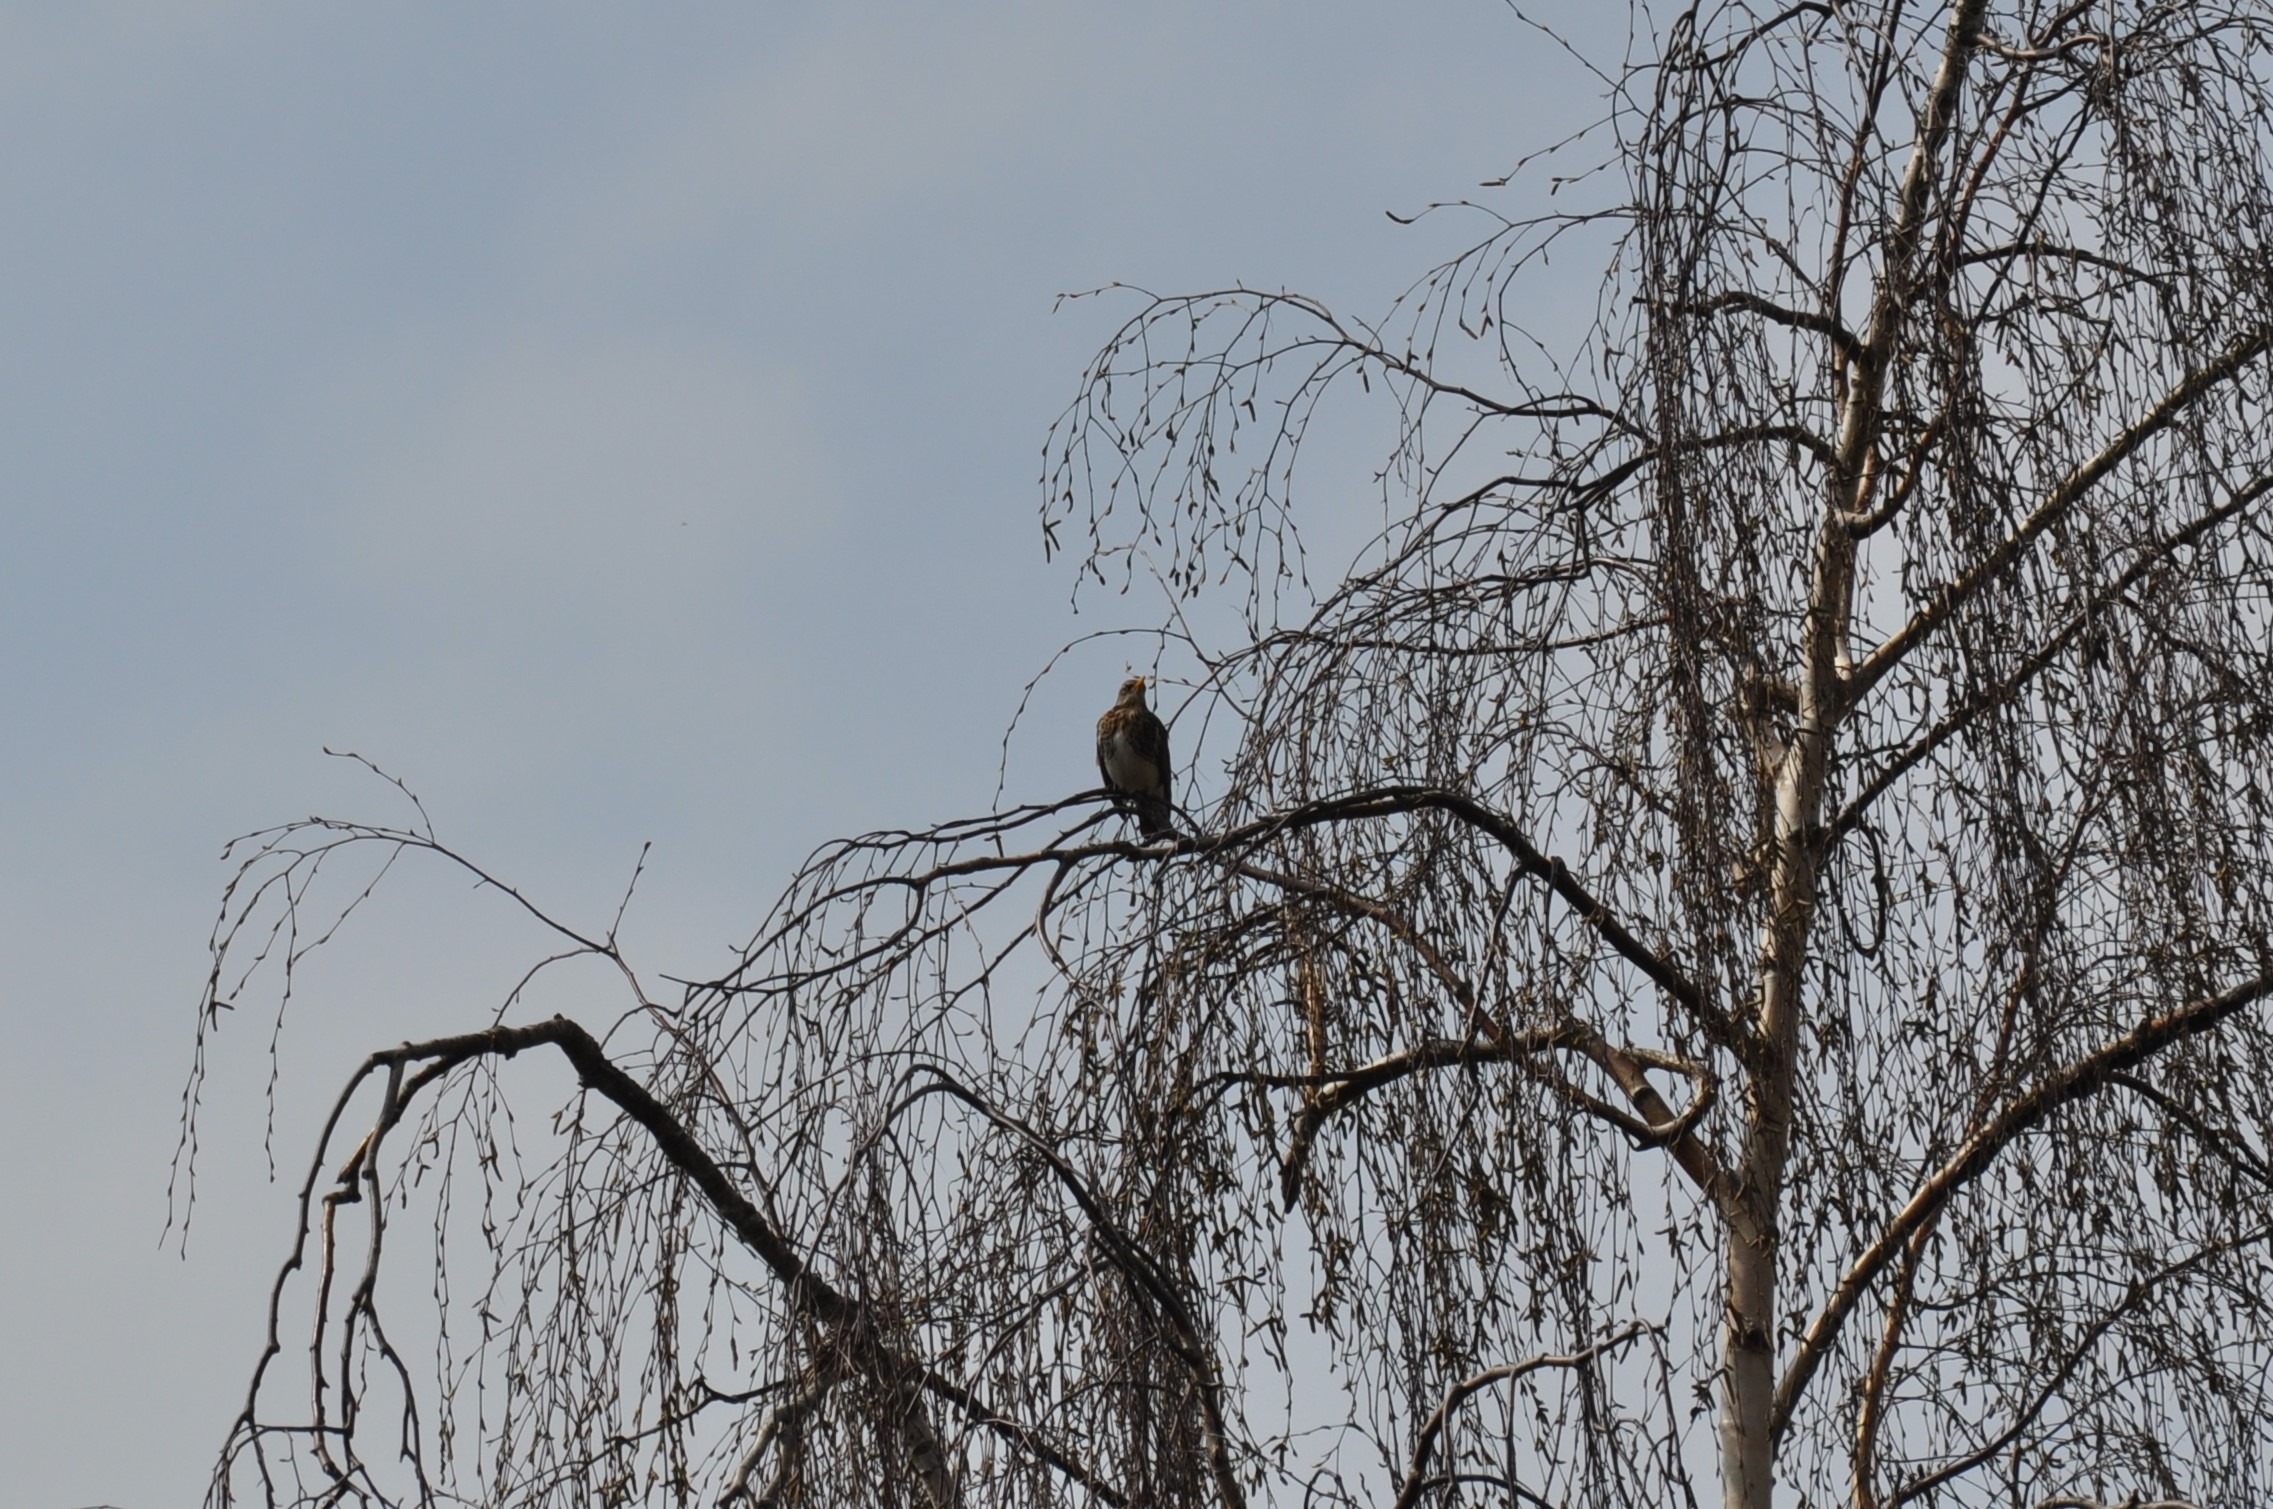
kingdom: Animalia
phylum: Chordata
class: Aves
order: Passeriformes
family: Turdidae
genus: Turdus
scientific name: Turdus pilaris
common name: Sjagger
